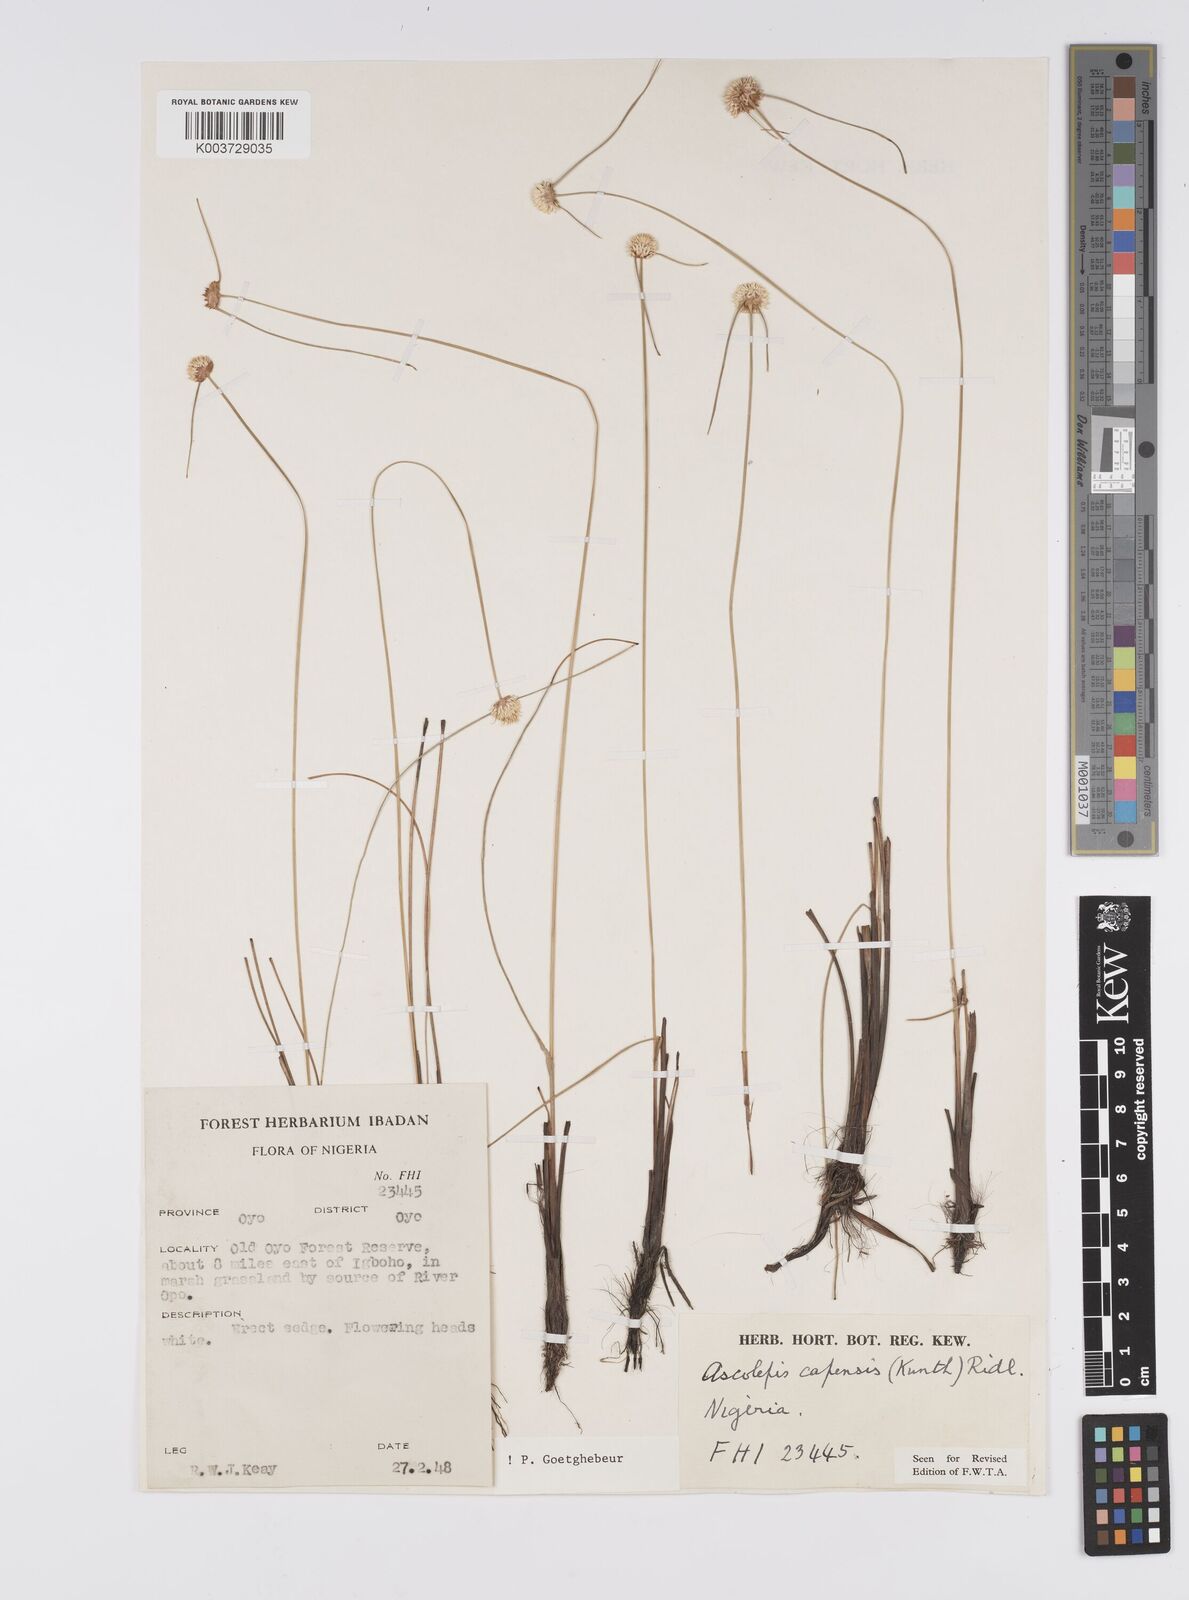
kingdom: Plantae
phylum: Tracheophyta
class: Liliopsida
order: Poales
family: Cyperaceae
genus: Ascolepis
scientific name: Ascolepis
